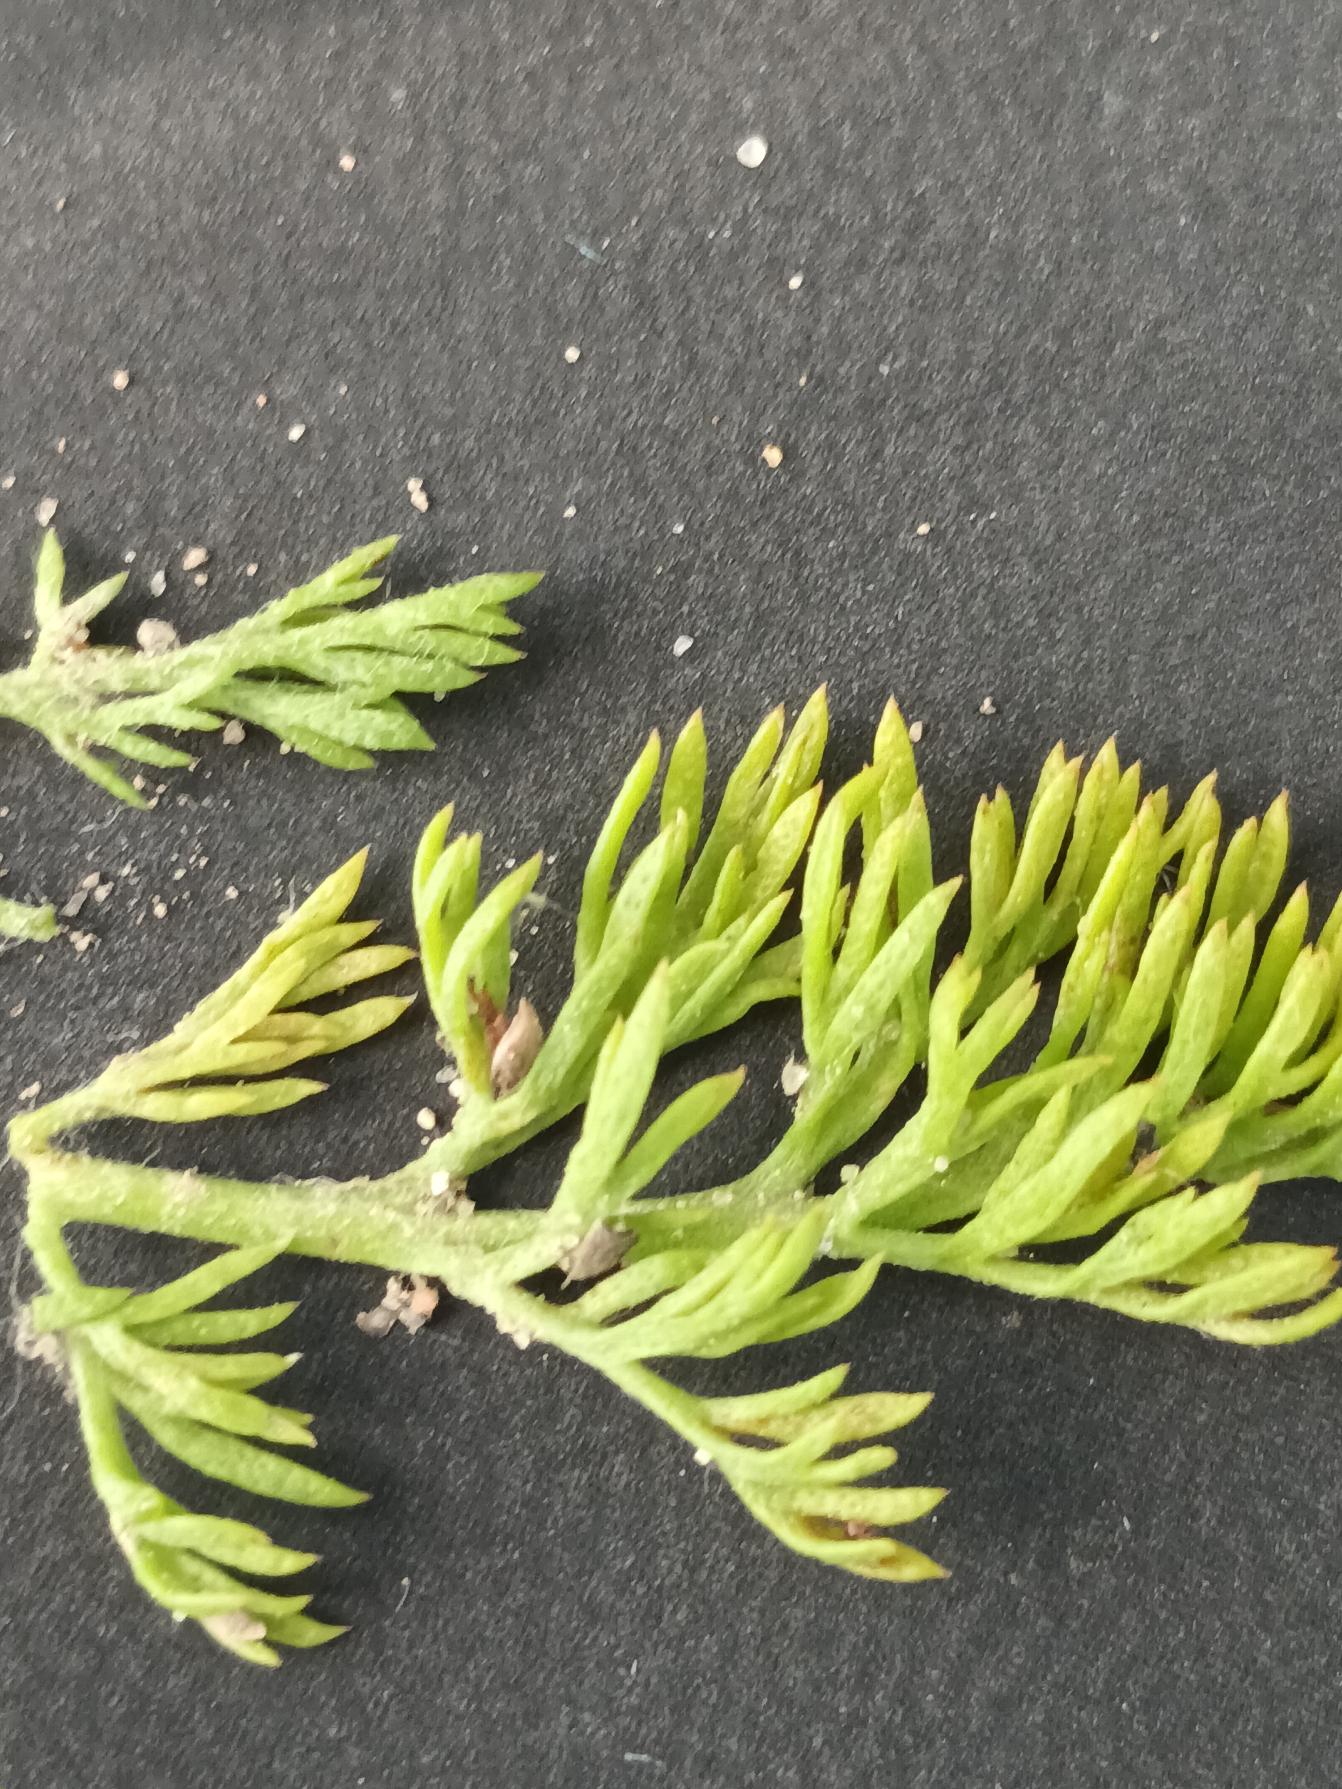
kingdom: Plantae
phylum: Tracheophyta
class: Magnoliopsida
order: Asterales
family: Asteraceae
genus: Anthemis
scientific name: Anthemis cotula
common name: Stinkende gåseurt
